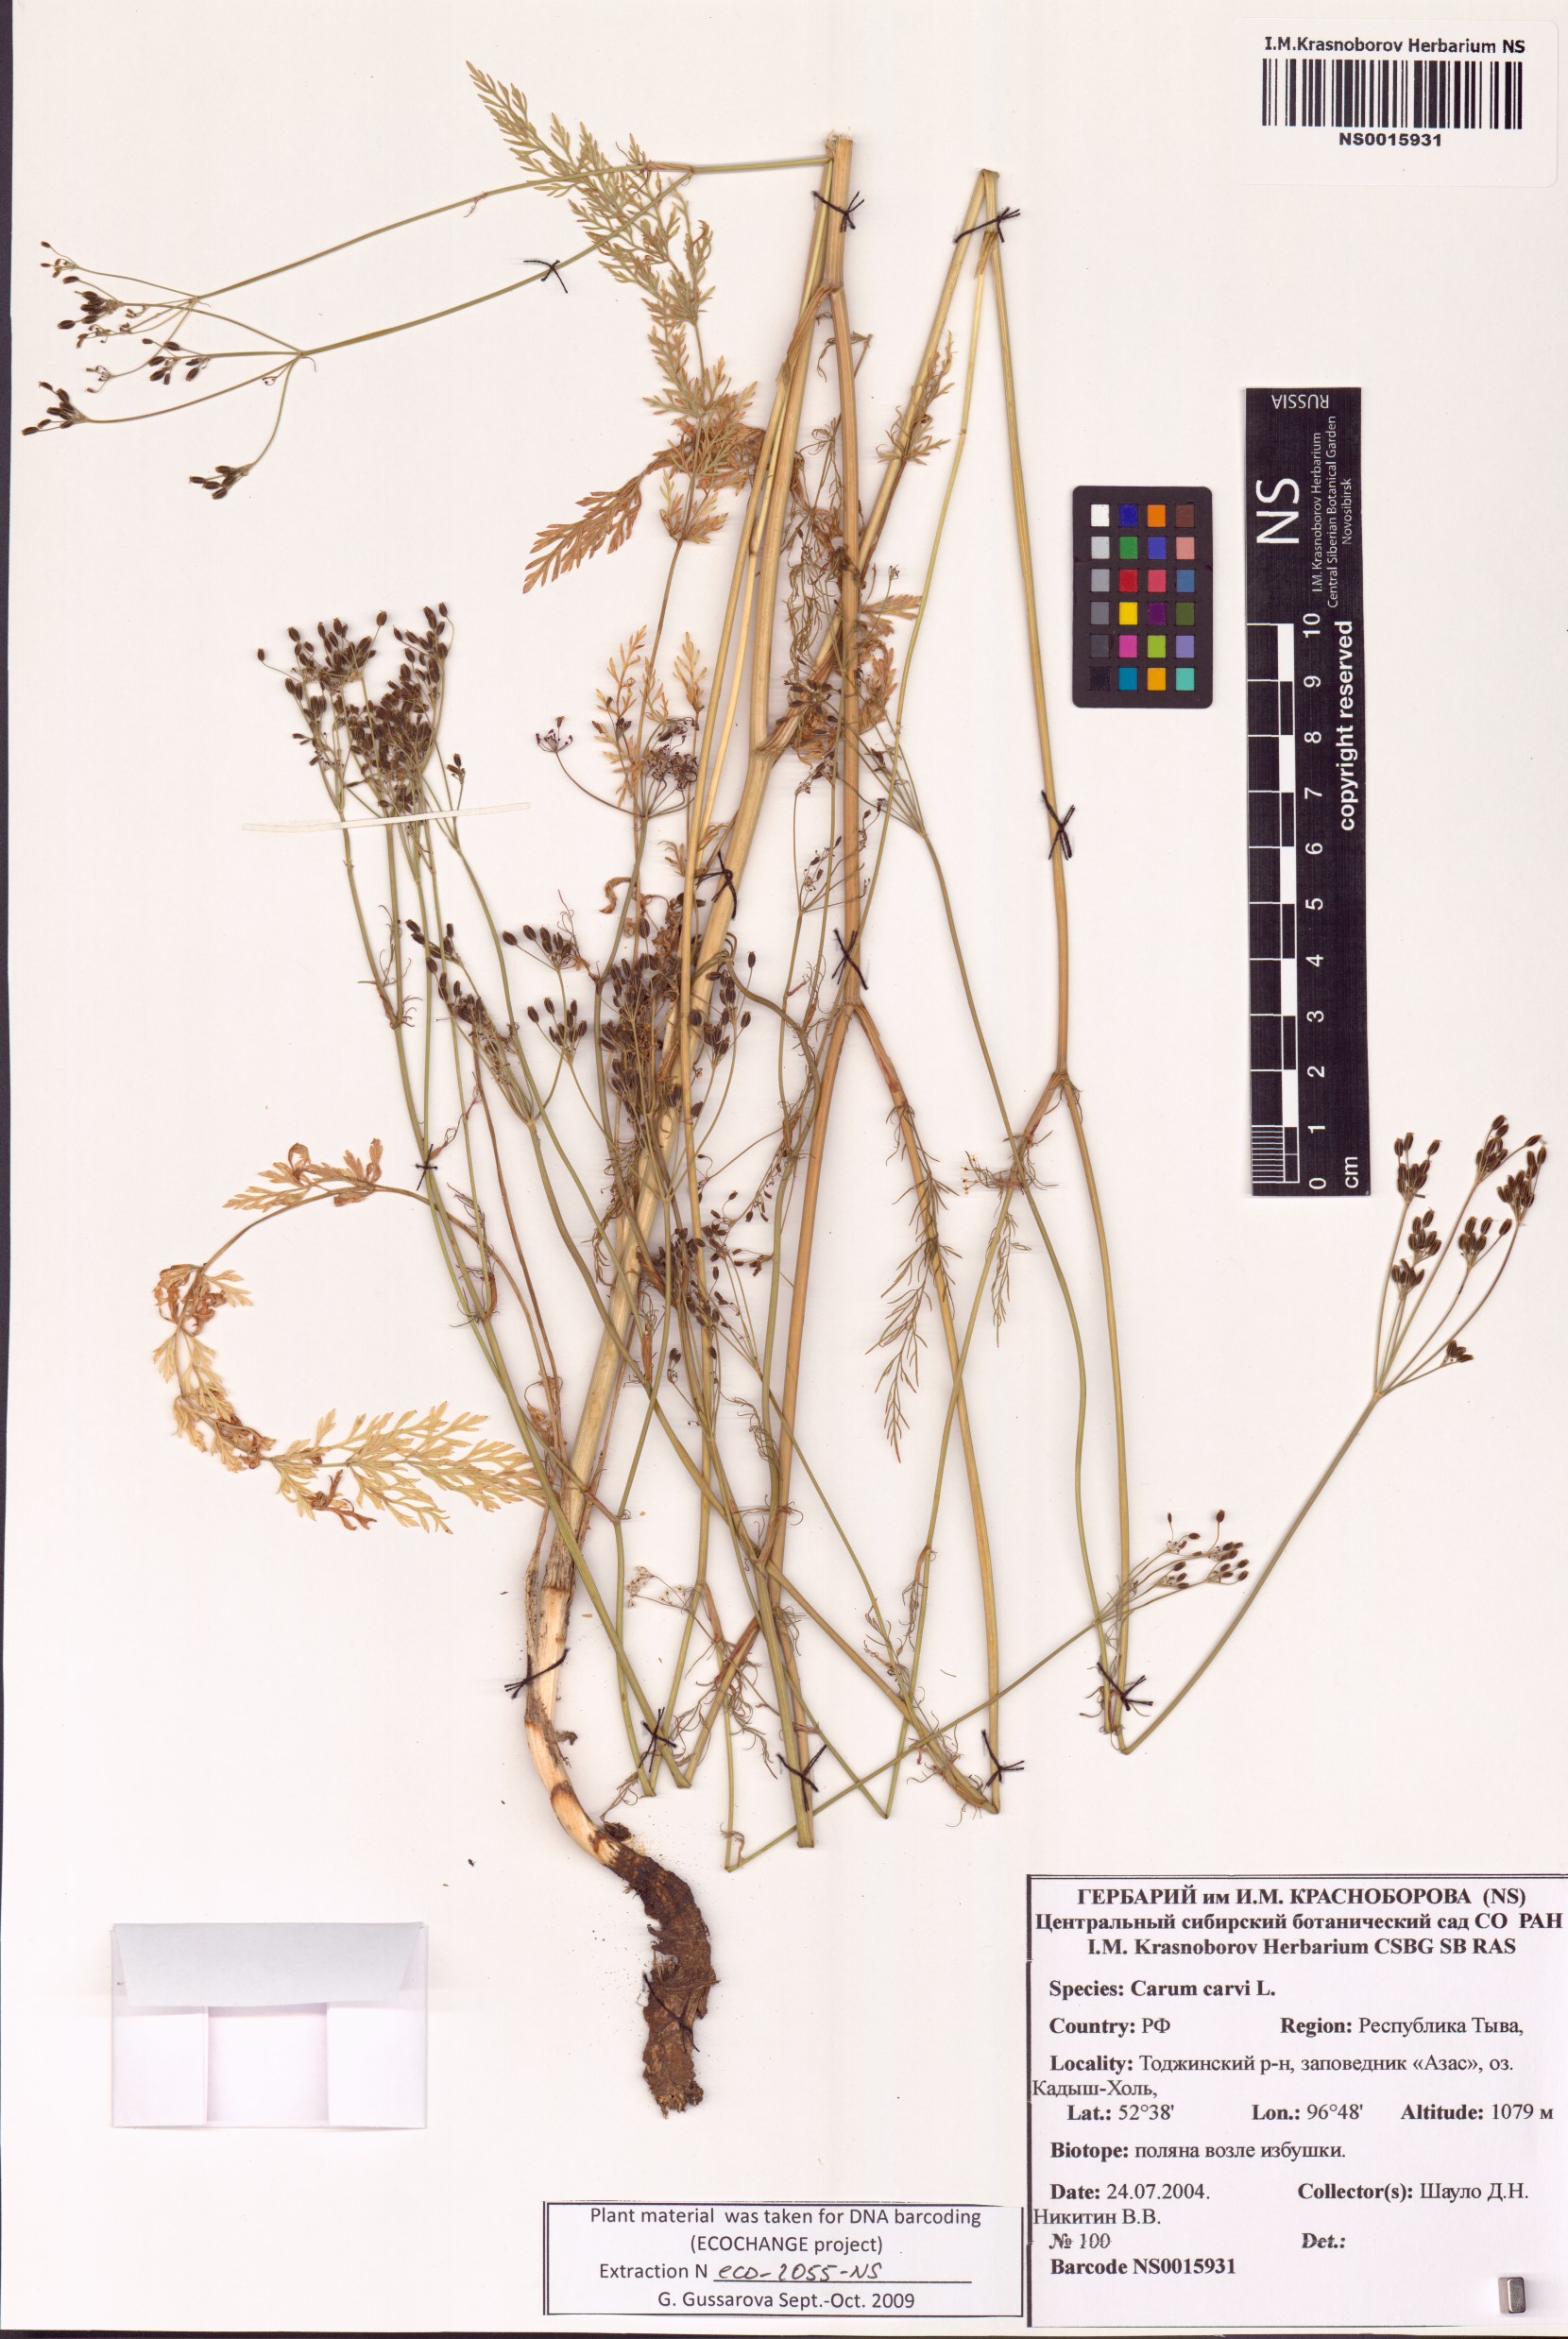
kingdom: Plantae
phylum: Tracheophyta
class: Magnoliopsida
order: Apiales
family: Apiaceae
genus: Carum
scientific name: Carum carvi
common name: Caraway
